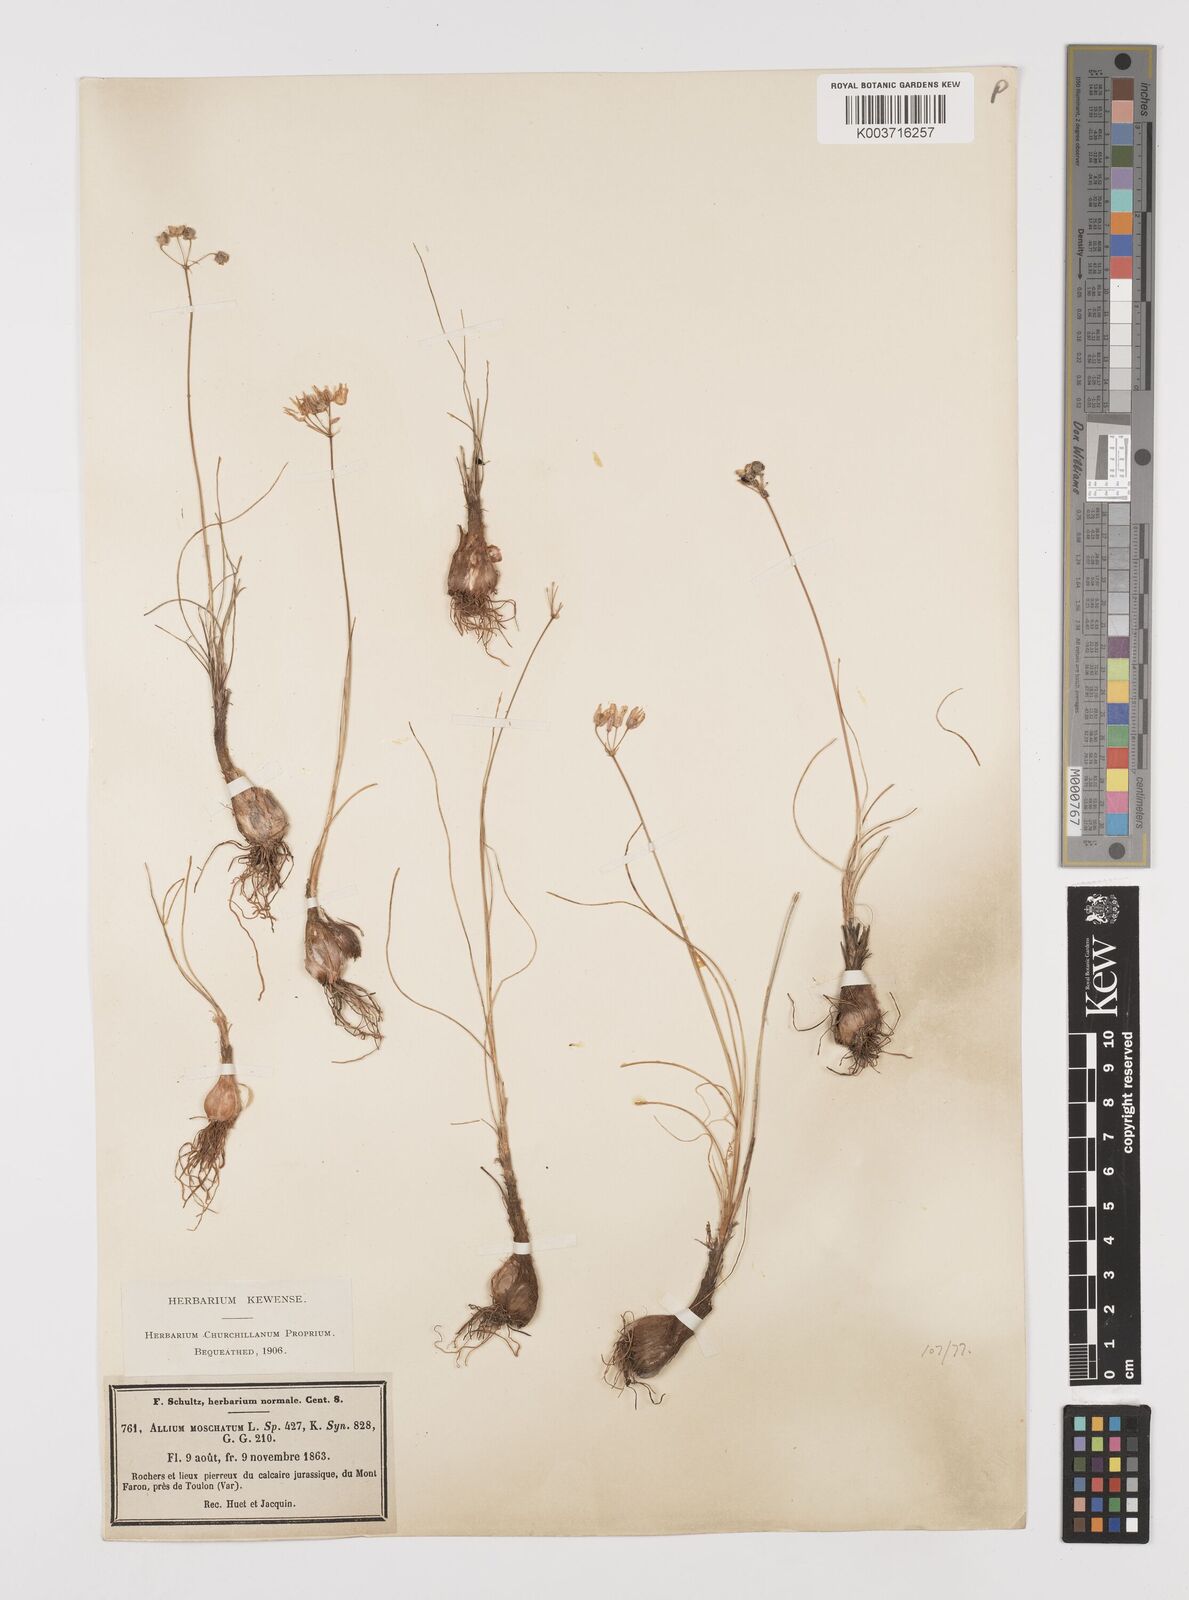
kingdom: Plantae
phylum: Tracheophyta
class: Liliopsida
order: Asparagales
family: Amaryllidaceae
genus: Allium
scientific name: Allium moschatum
